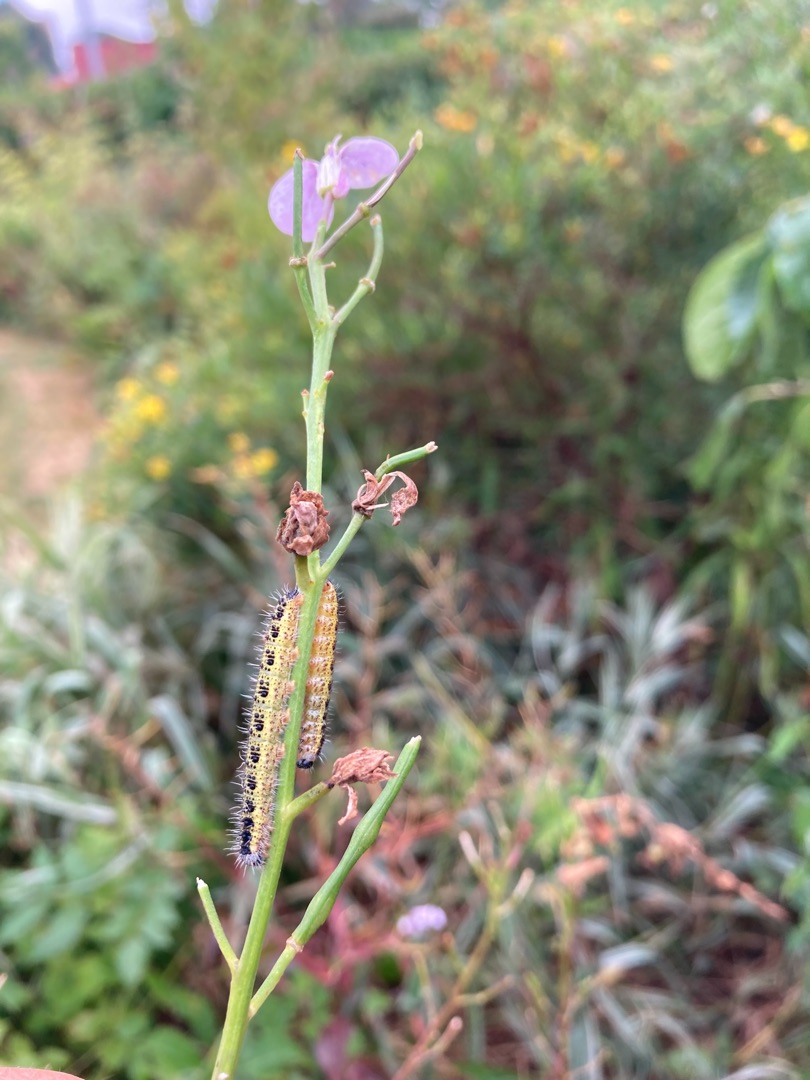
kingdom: Animalia
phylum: Arthropoda
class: Insecta
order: Lepidoptera
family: Pieridae
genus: Pieris
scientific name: Pieris brassicae
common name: Stor kålsommerfugl
